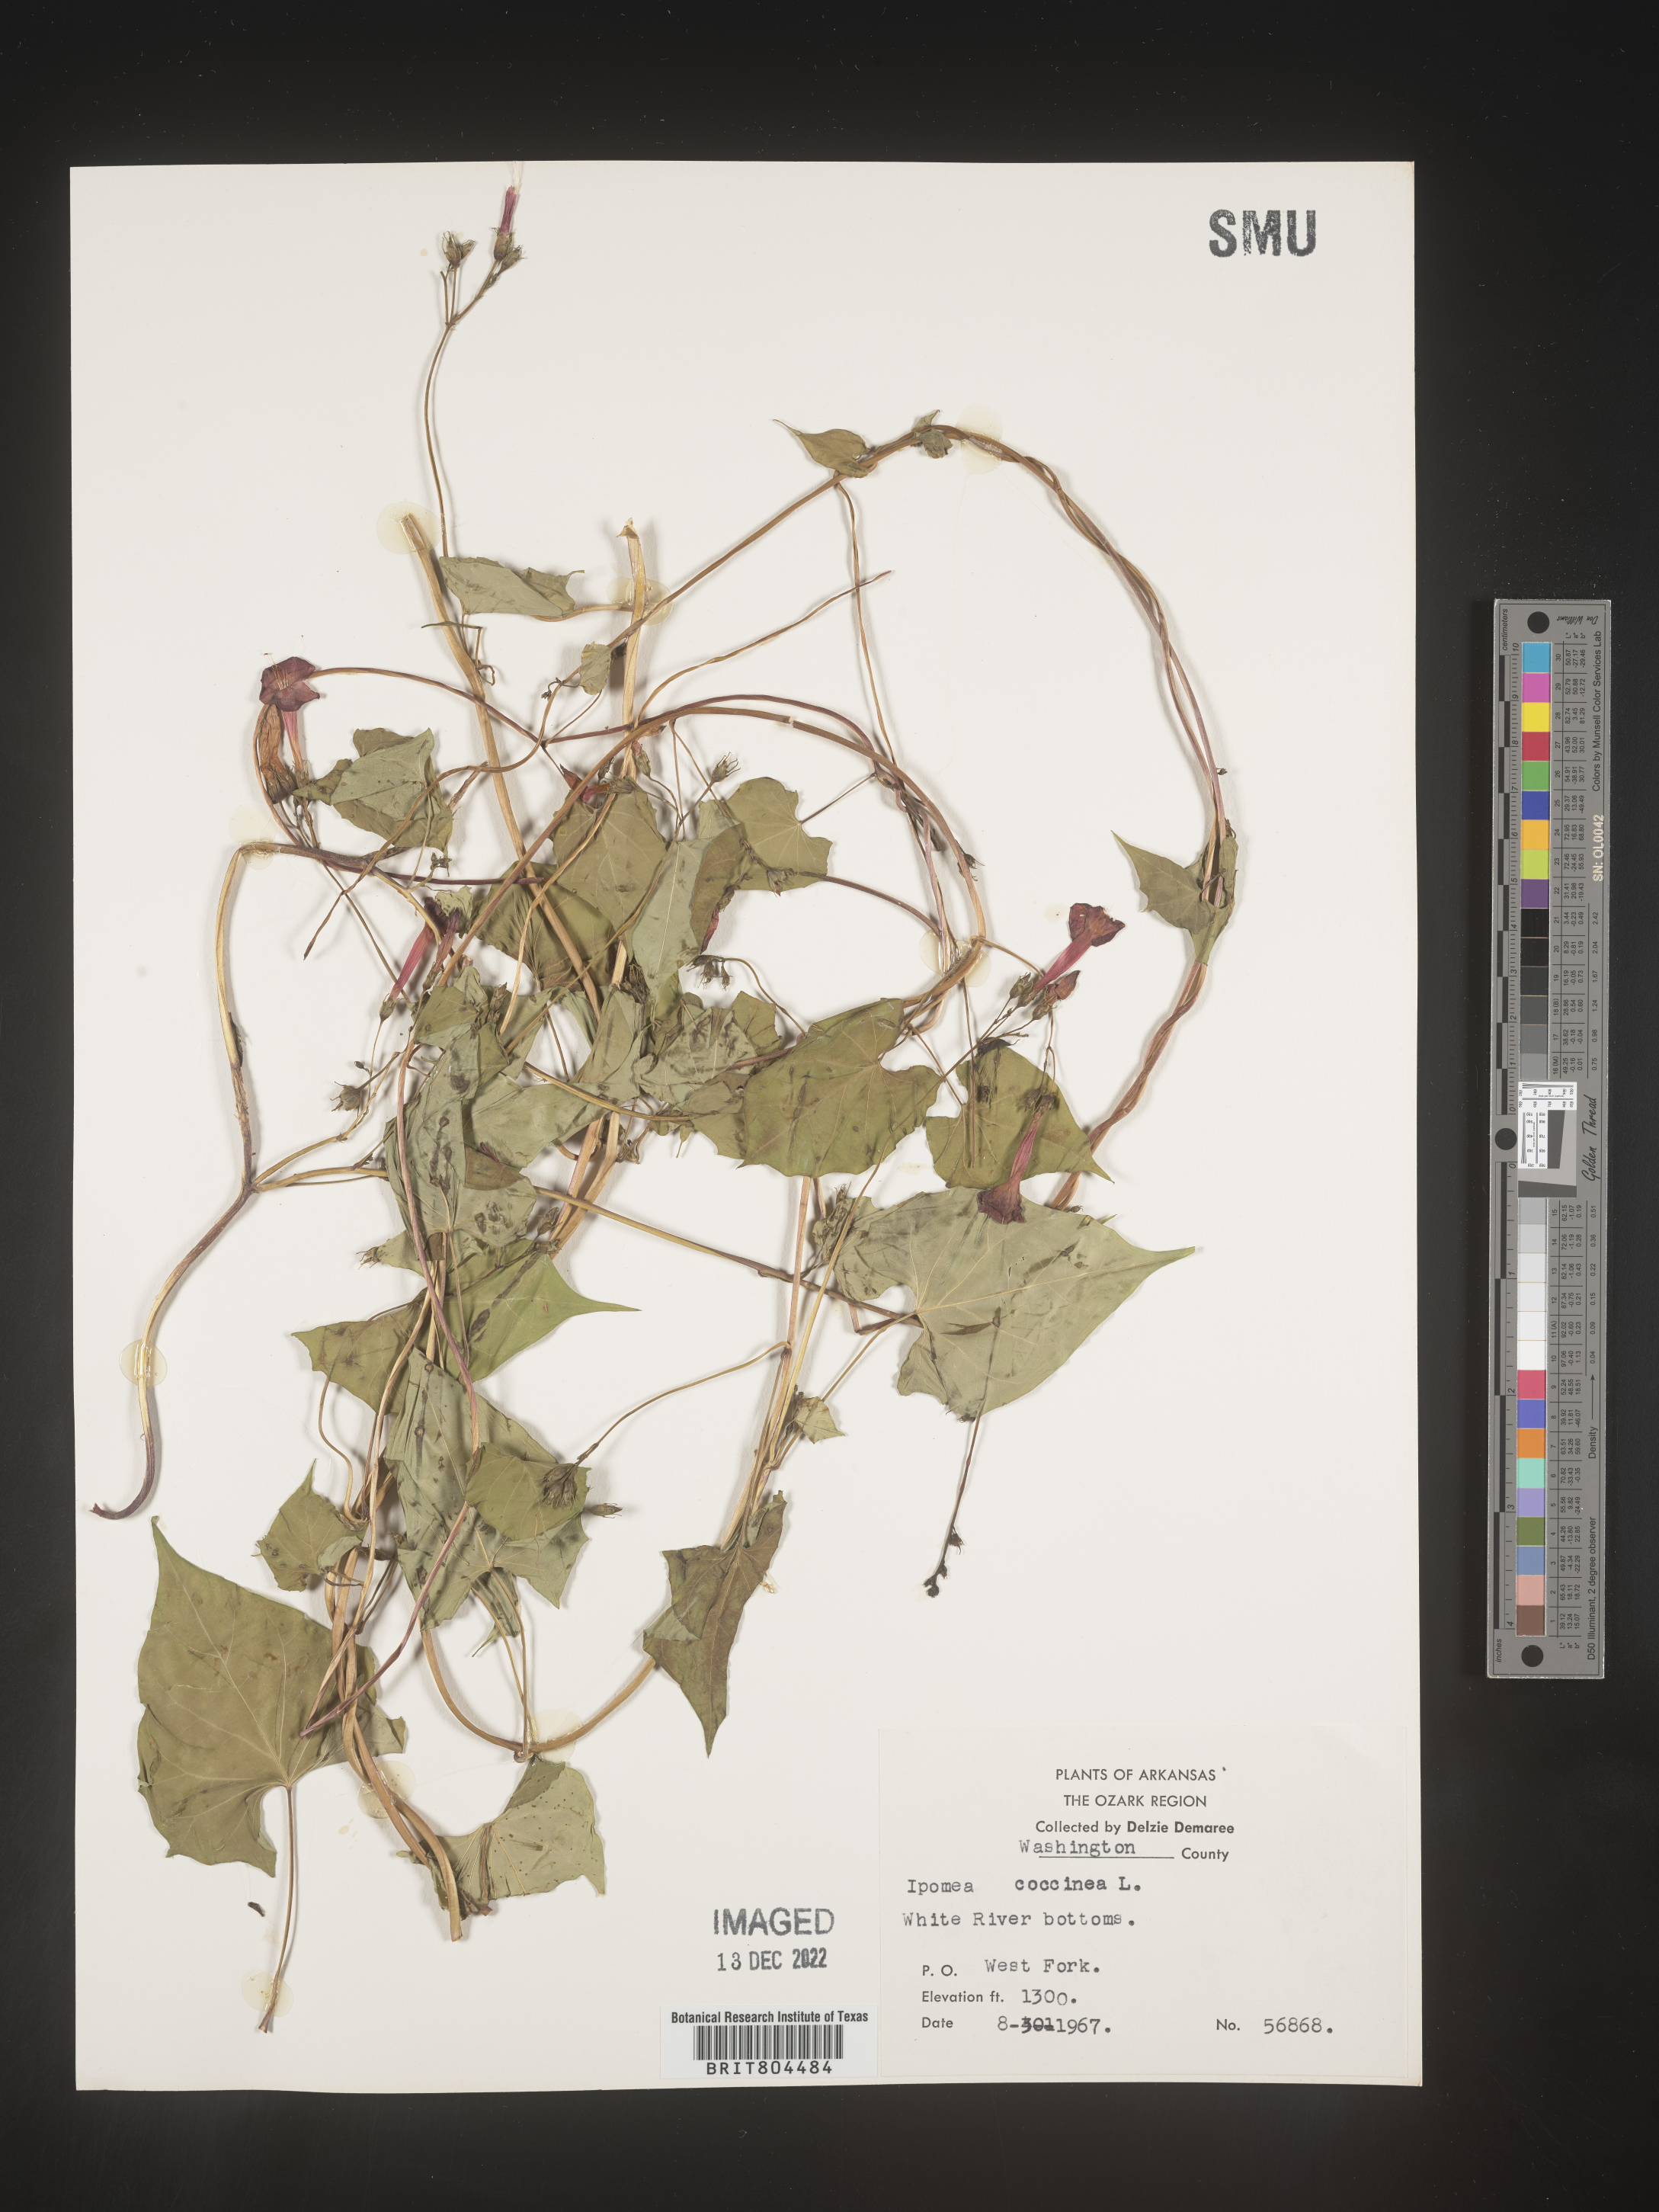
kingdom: Plantae
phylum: Tracheophyta
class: Magnoliopsida
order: Solanales
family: Convolvulaceae
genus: Ipomoea
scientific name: Ipomoea coccinea
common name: Red morning-glory
